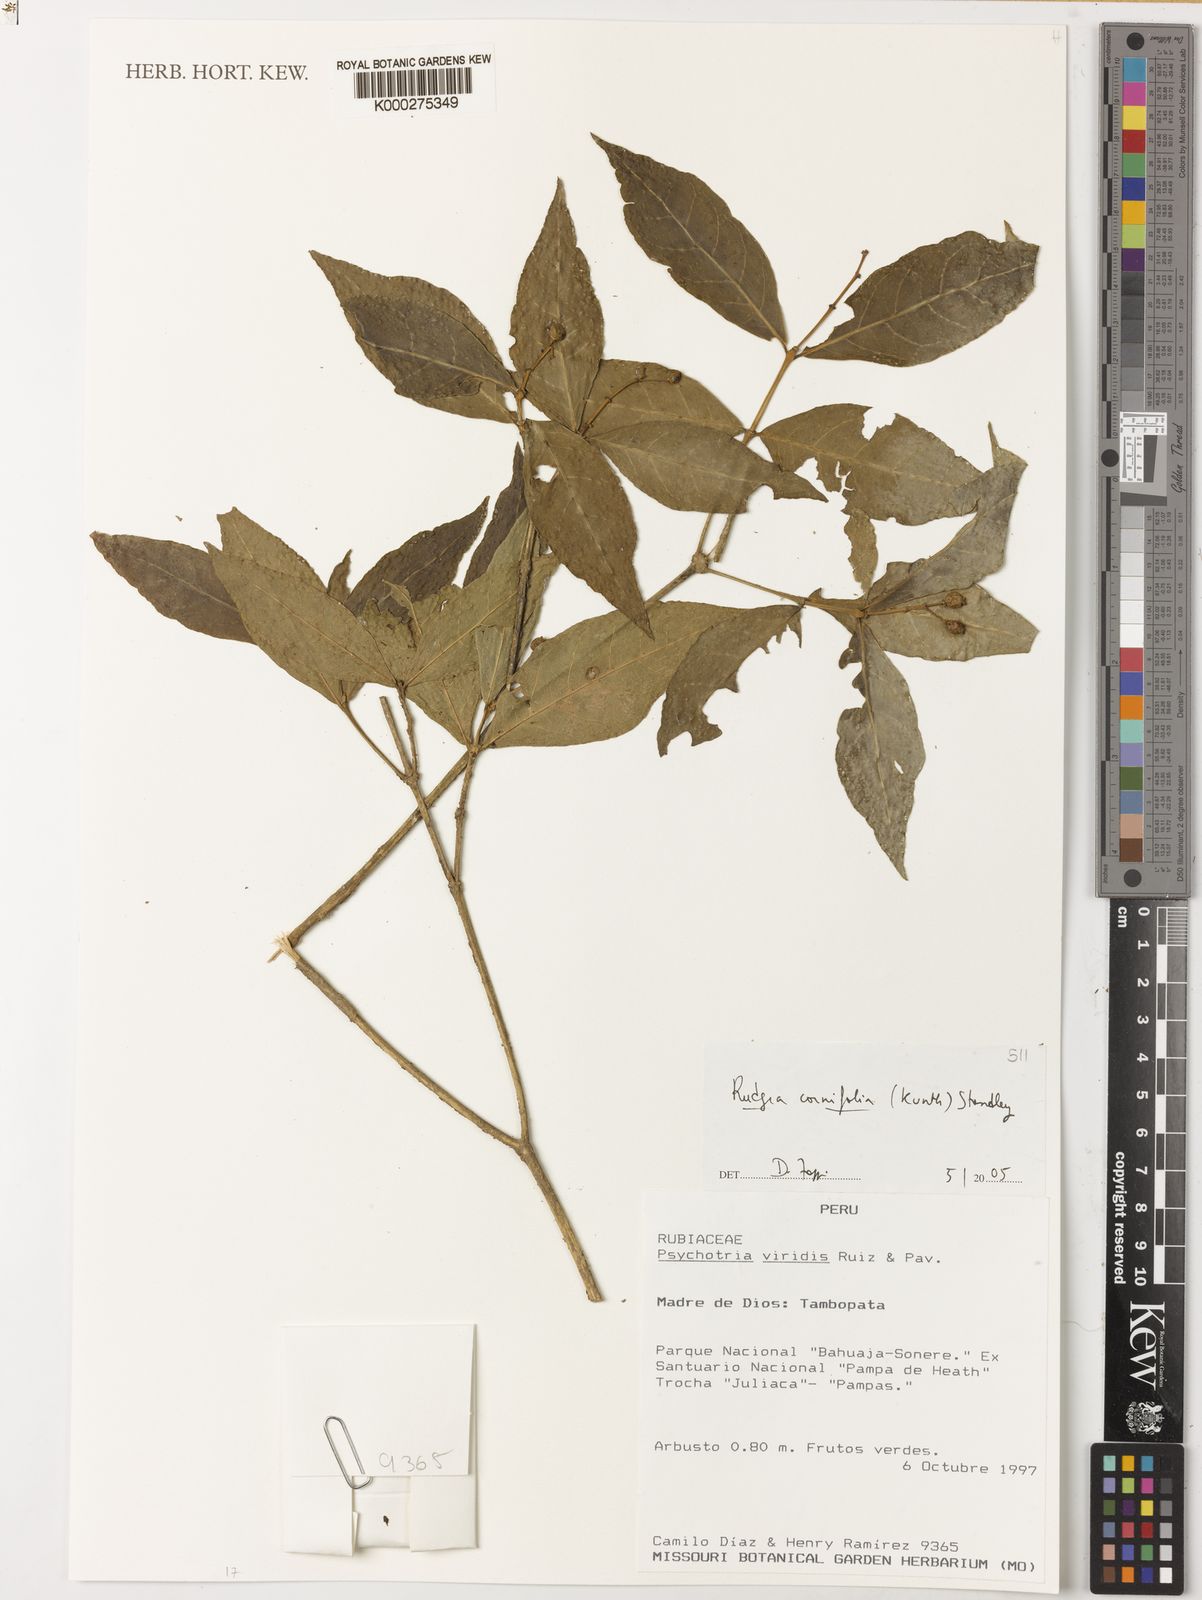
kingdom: Plantae
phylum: Tracheophyta
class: Magnoliopsida
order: Gentianales
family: Rubiaceae
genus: Rudgea
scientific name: Rudgea cornifolia
